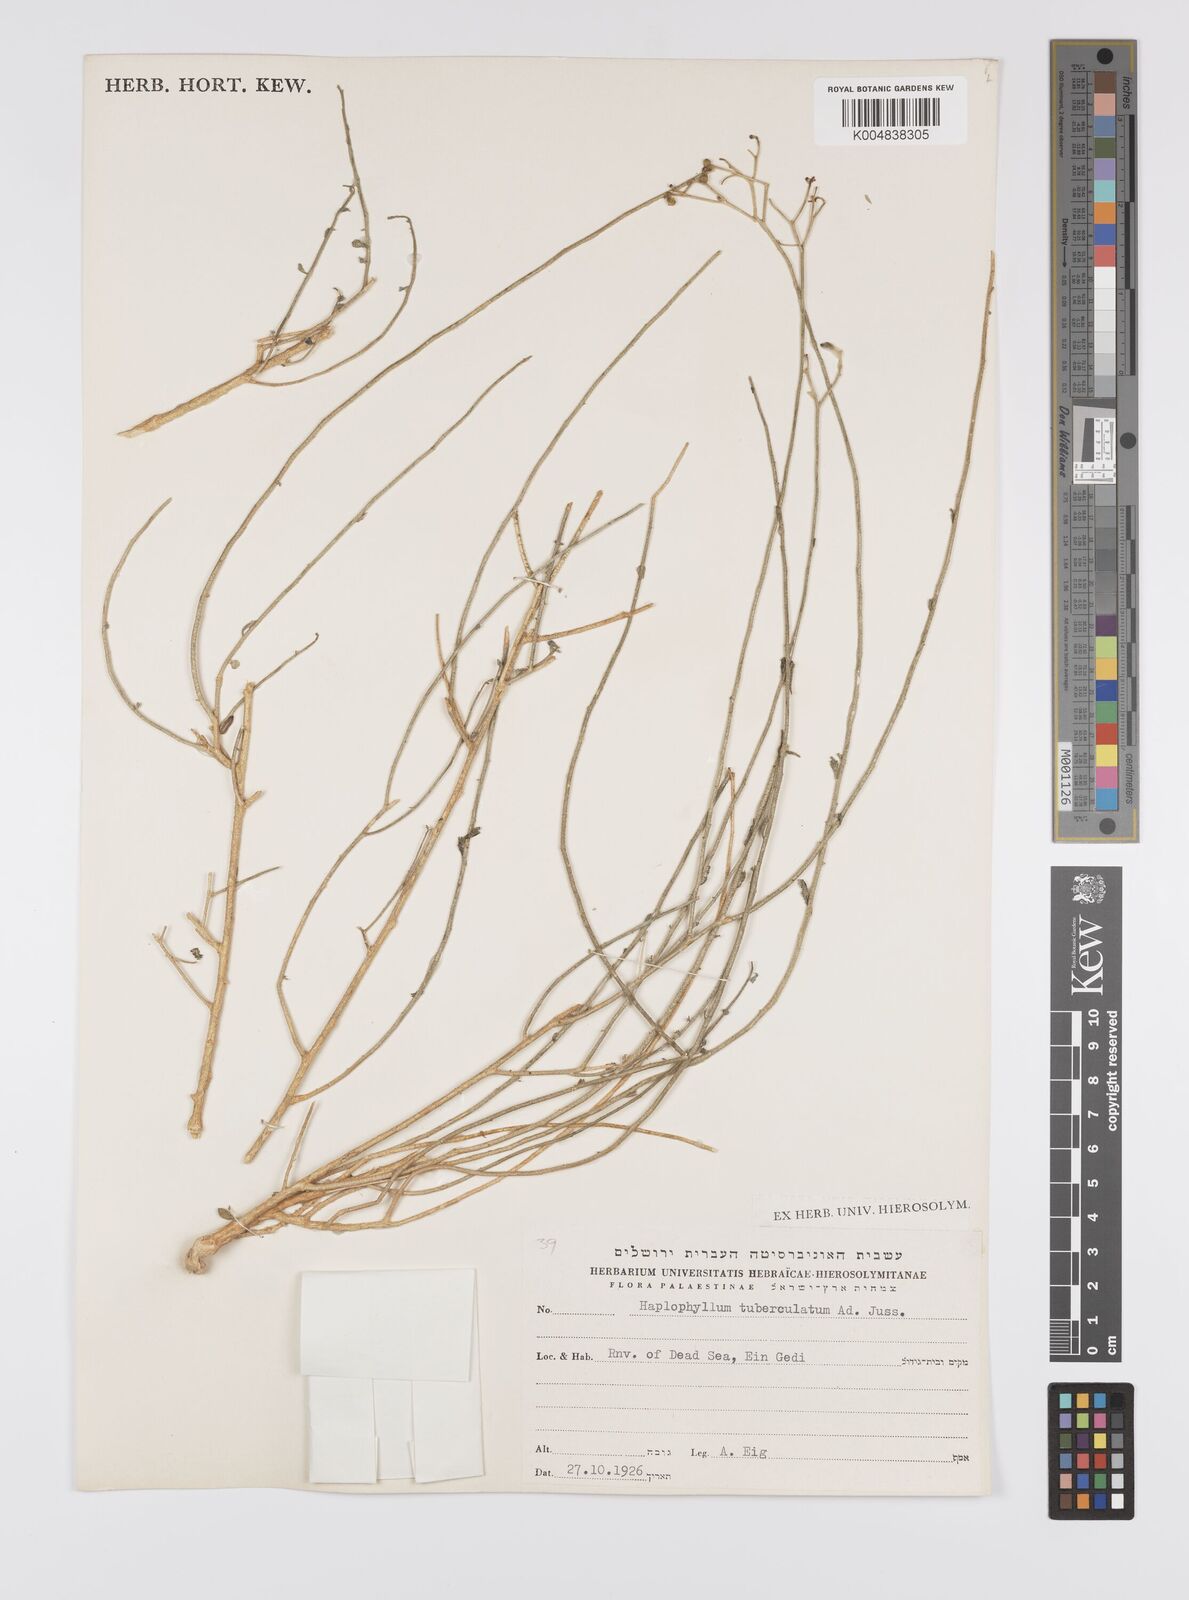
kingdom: Plantae
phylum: Tracheophyta
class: Magnoliopsida
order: Sapindales
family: Rutaceae
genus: Haplophyllum
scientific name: Haplophyllum tuberculatum
